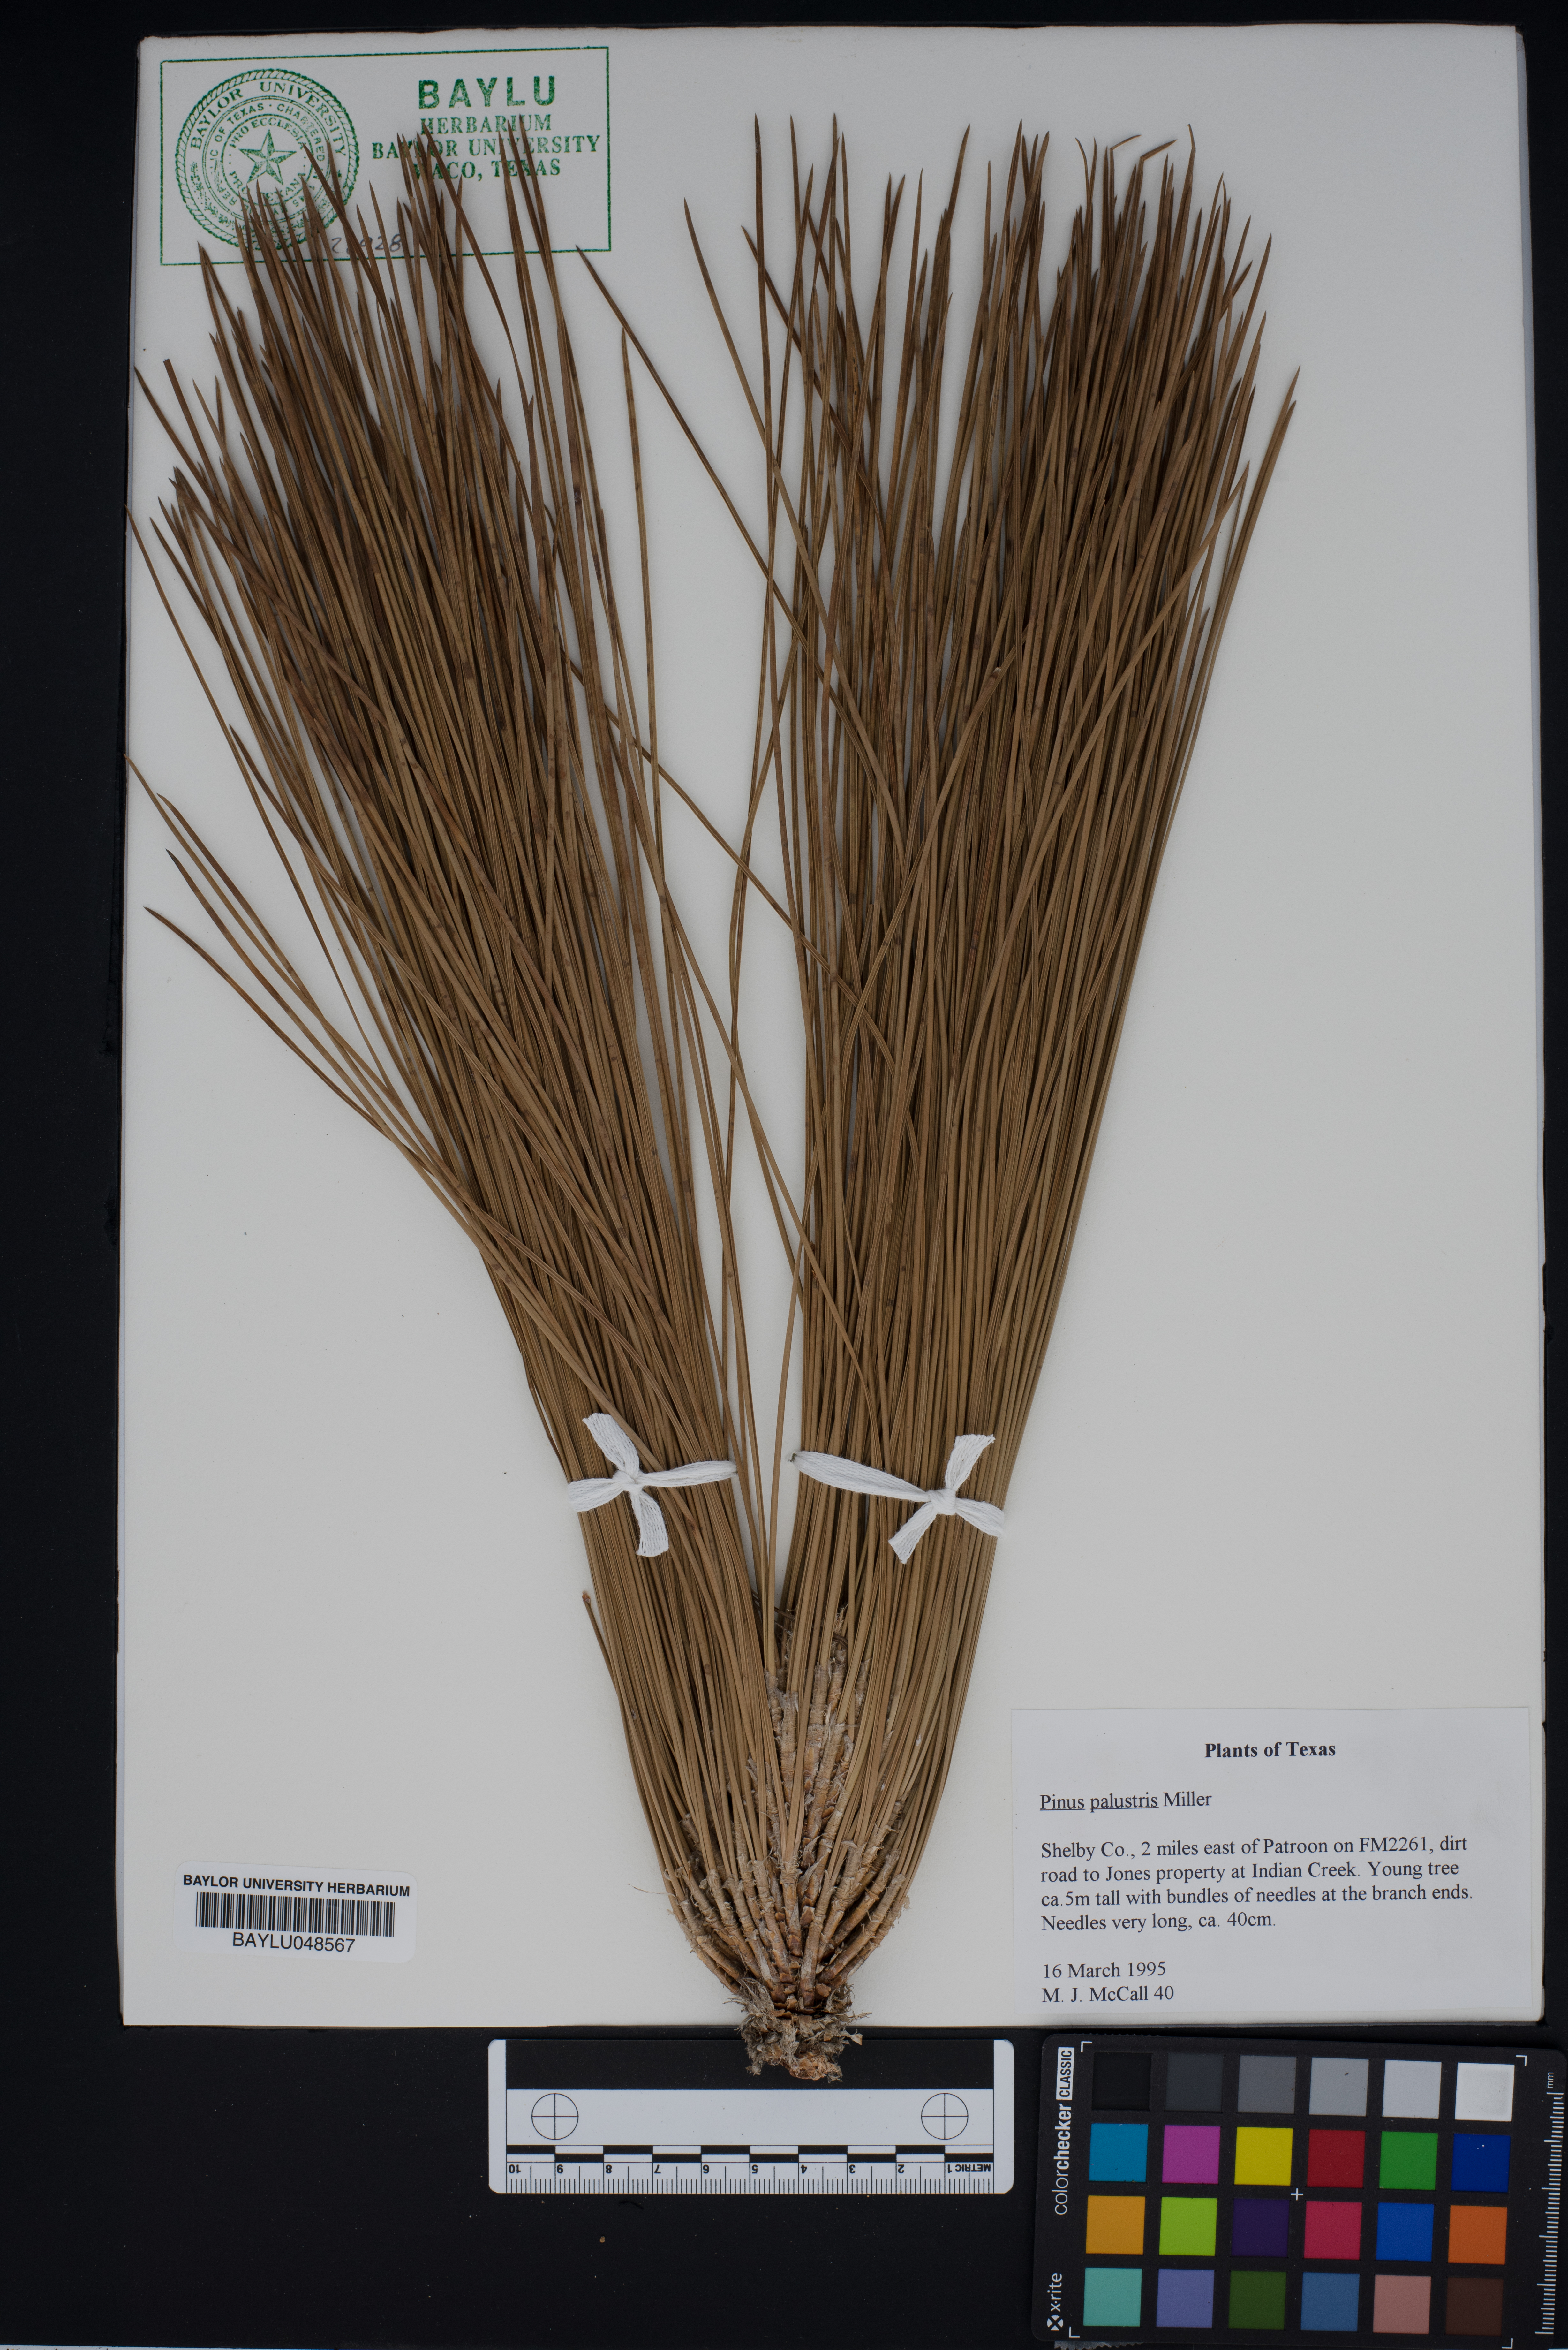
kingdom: Plantae
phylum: Tracheophyta
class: Pinopsida
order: Pinales
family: Pinaceae
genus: Pinus
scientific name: Pinus palustris
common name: Longleaf pine
